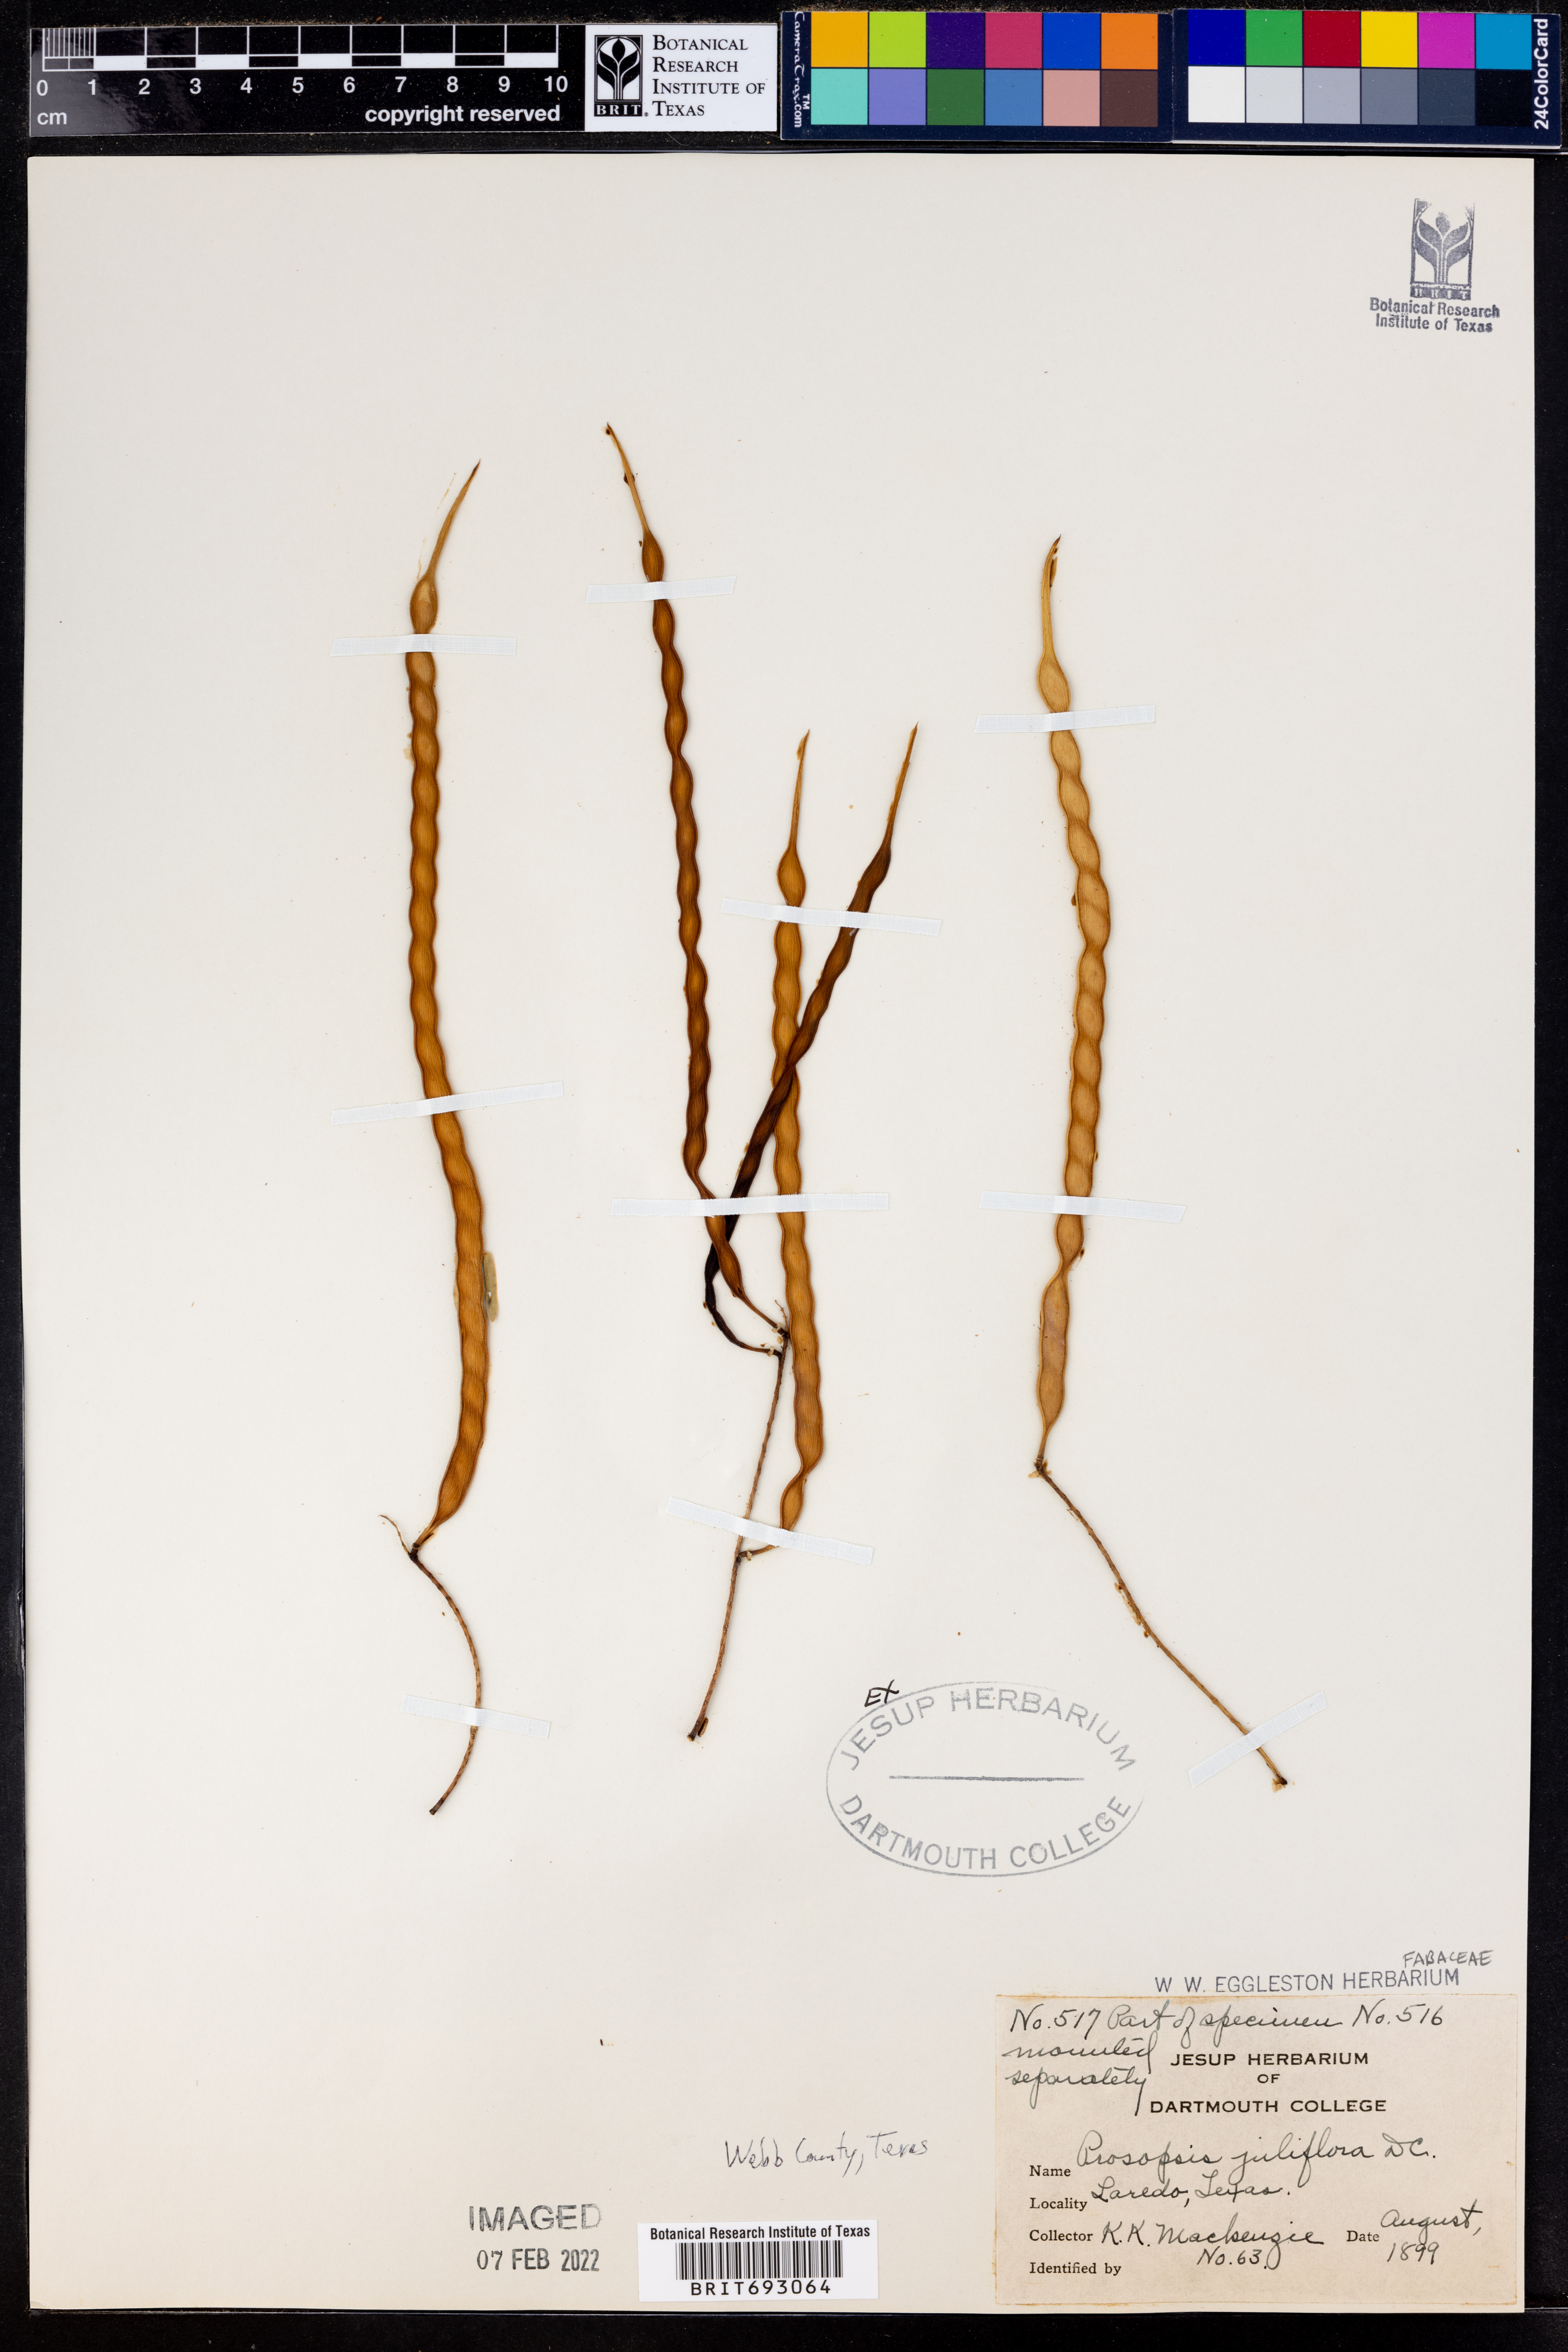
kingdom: Plantae
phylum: Tracheophyta
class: Magnoliopsida
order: Fabales
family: Fabaceae
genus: Prosopis
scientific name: Prosopis juliflora
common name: Mesquite
